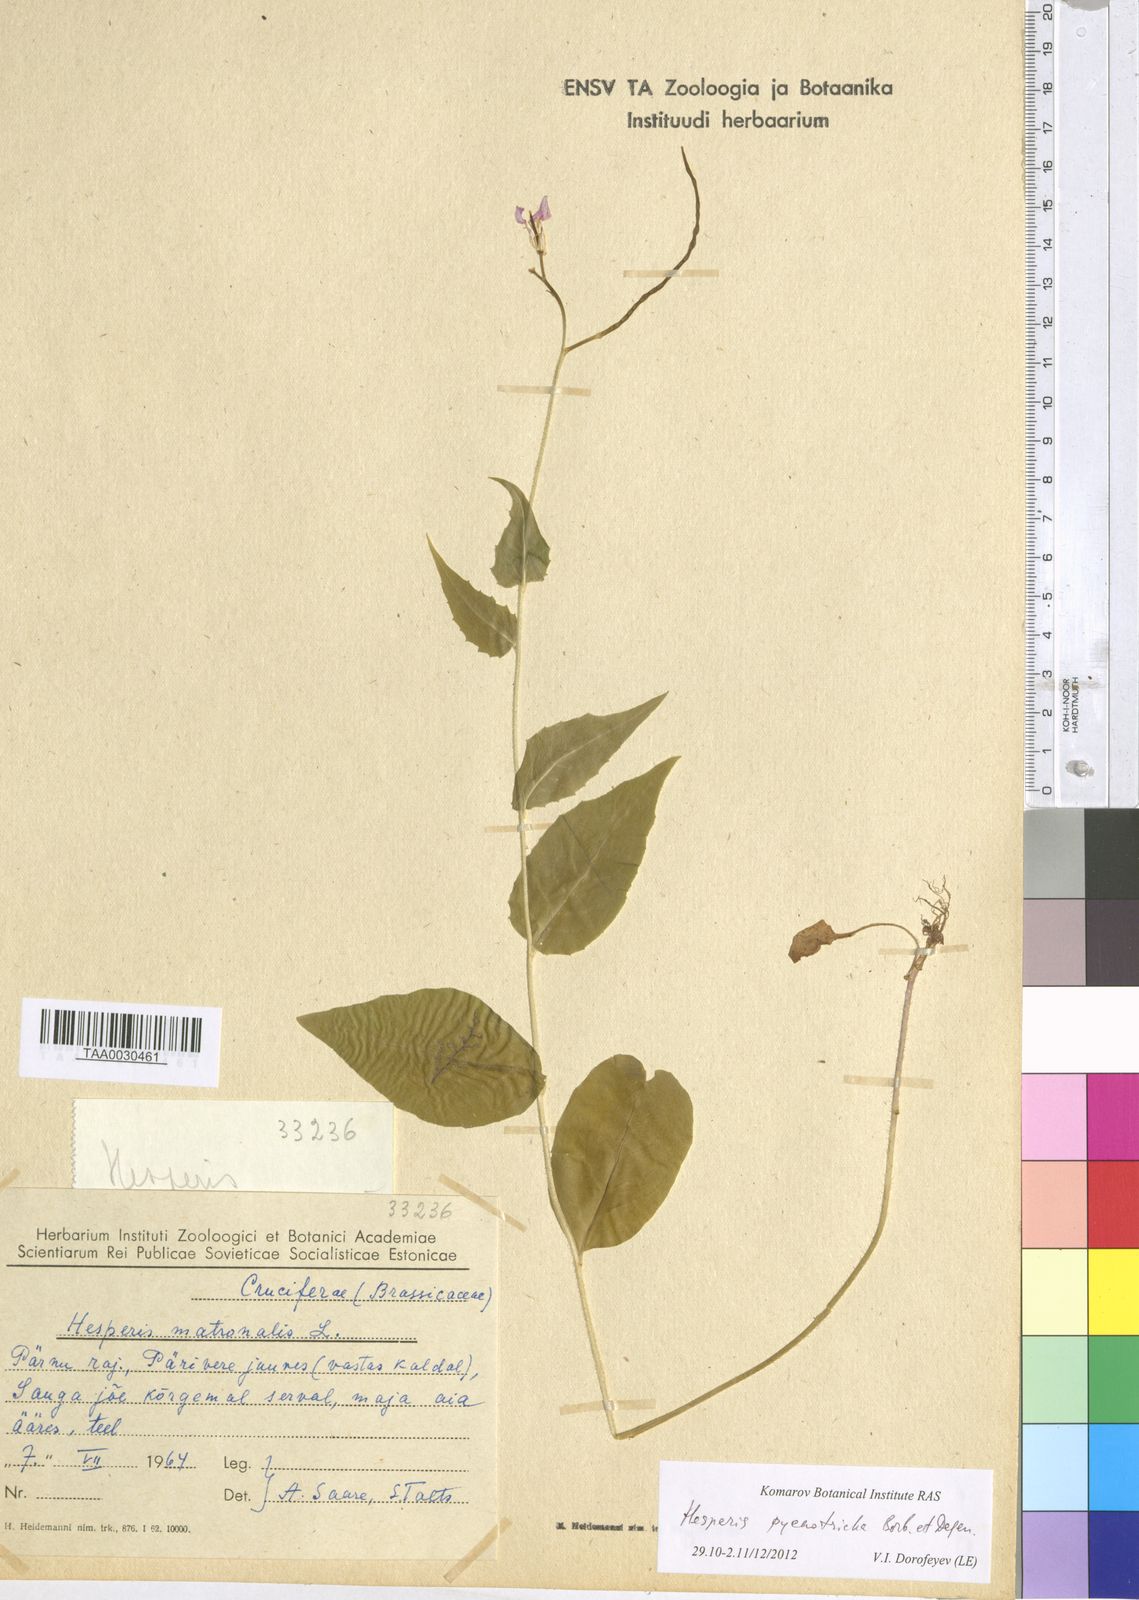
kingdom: Plantae
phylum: Tracheophyta
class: Magnoliopsida
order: Brassicales
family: Brassicaceae
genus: Hesperis
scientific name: Hesperis pycnotricha
